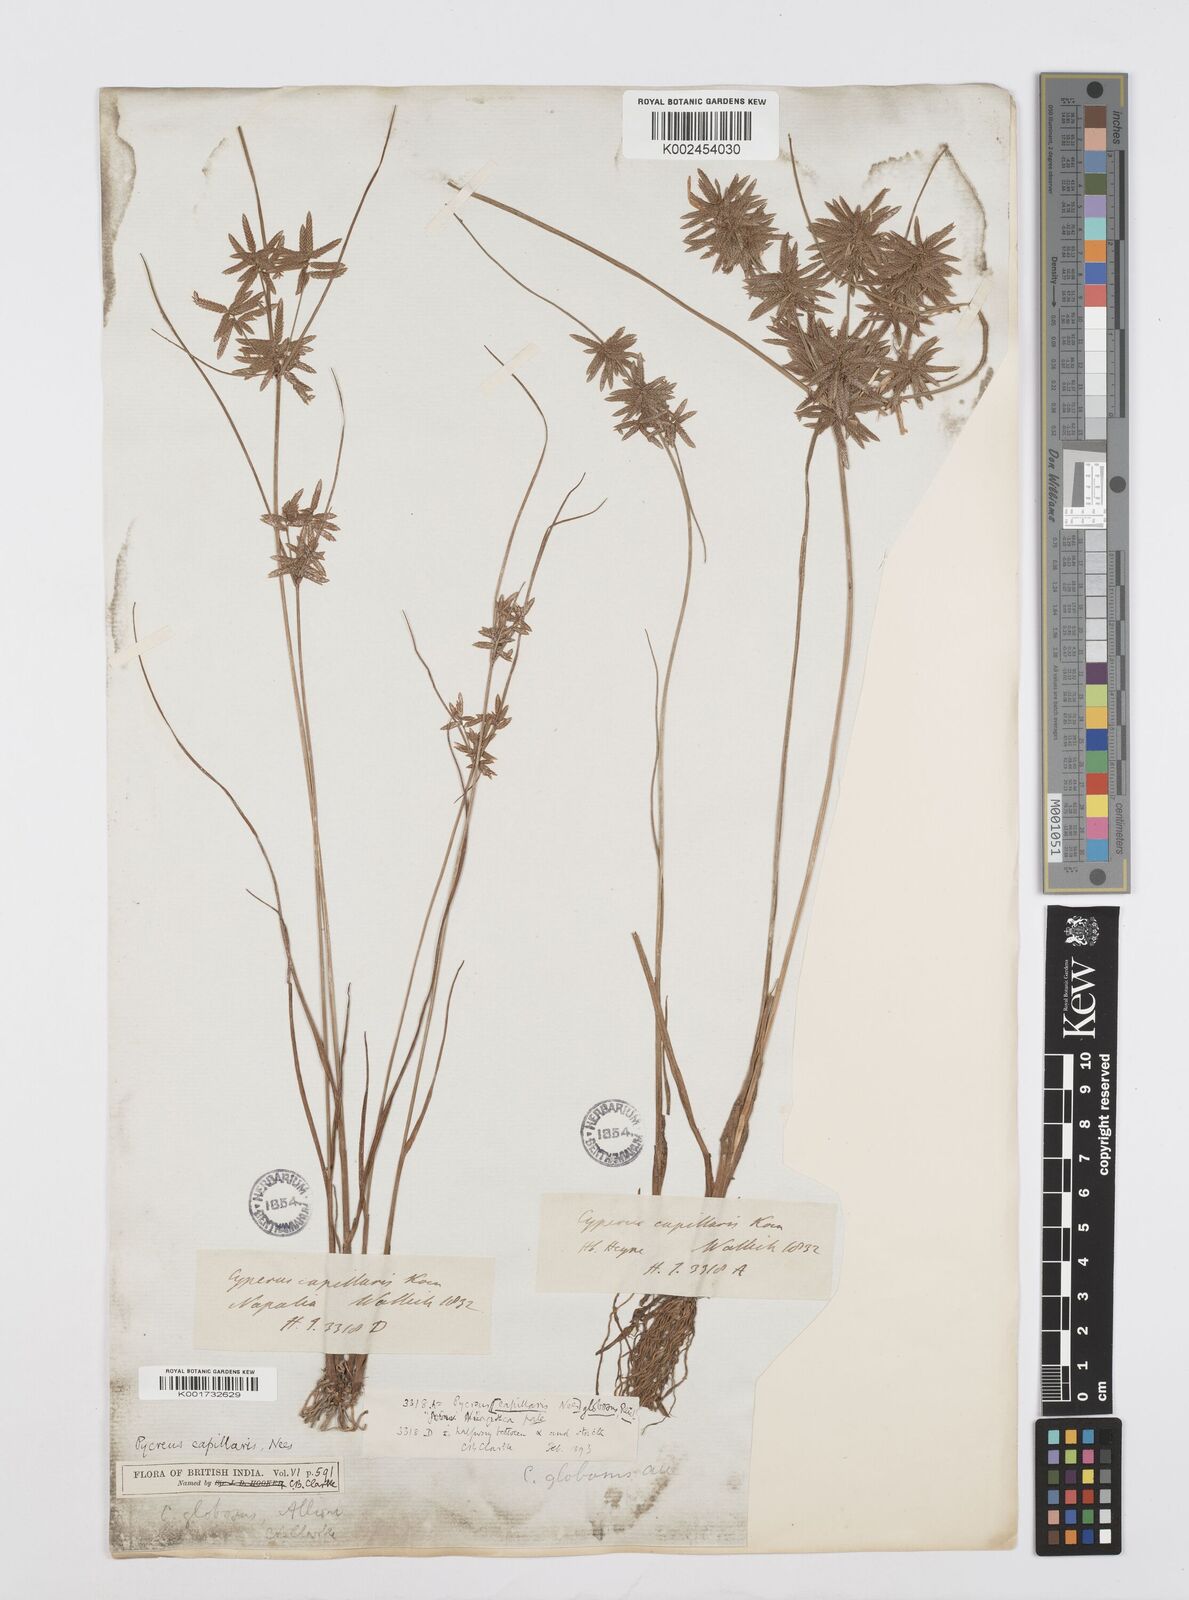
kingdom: Plantae
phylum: Tracheophyta
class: Liliopsida
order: Poales
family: Cyperaceae
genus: Cyperus
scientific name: Cyperus flavidus
